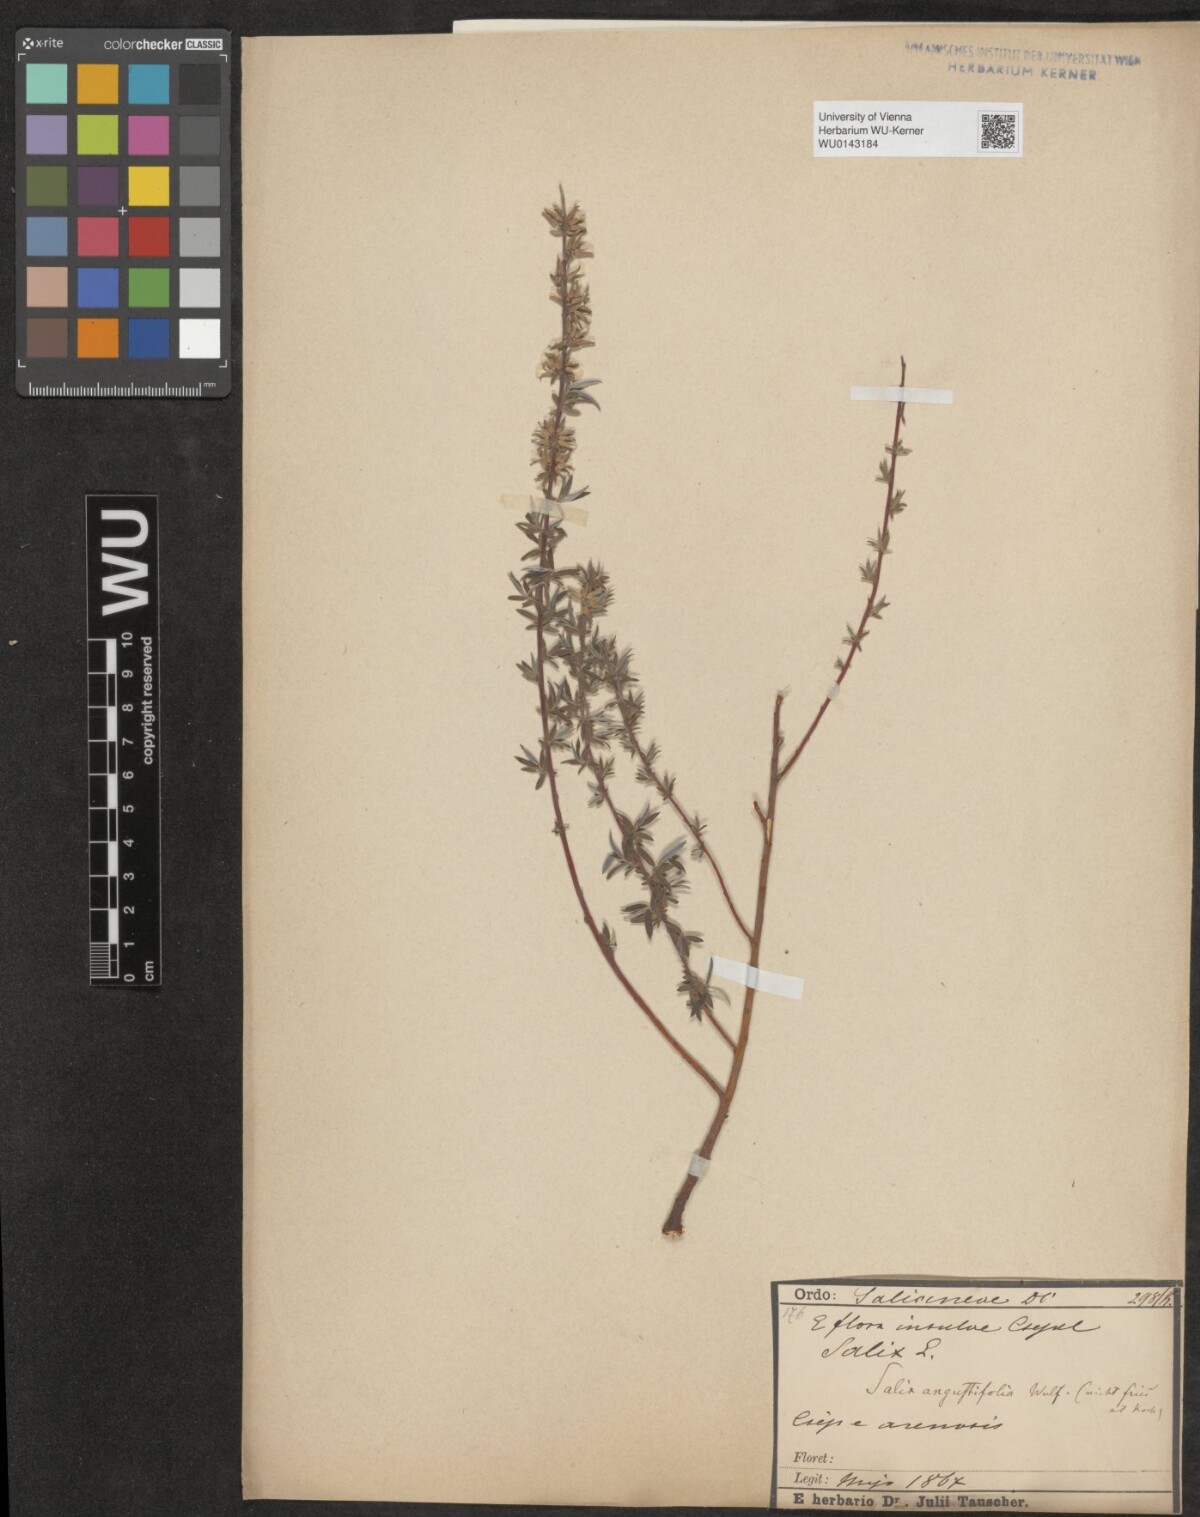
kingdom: Plantae
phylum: Tracheophyta
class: Magnoliopsida
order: Malpighiales
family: Salicaceae
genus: Salix
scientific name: Salix repens
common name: Creeping willow
